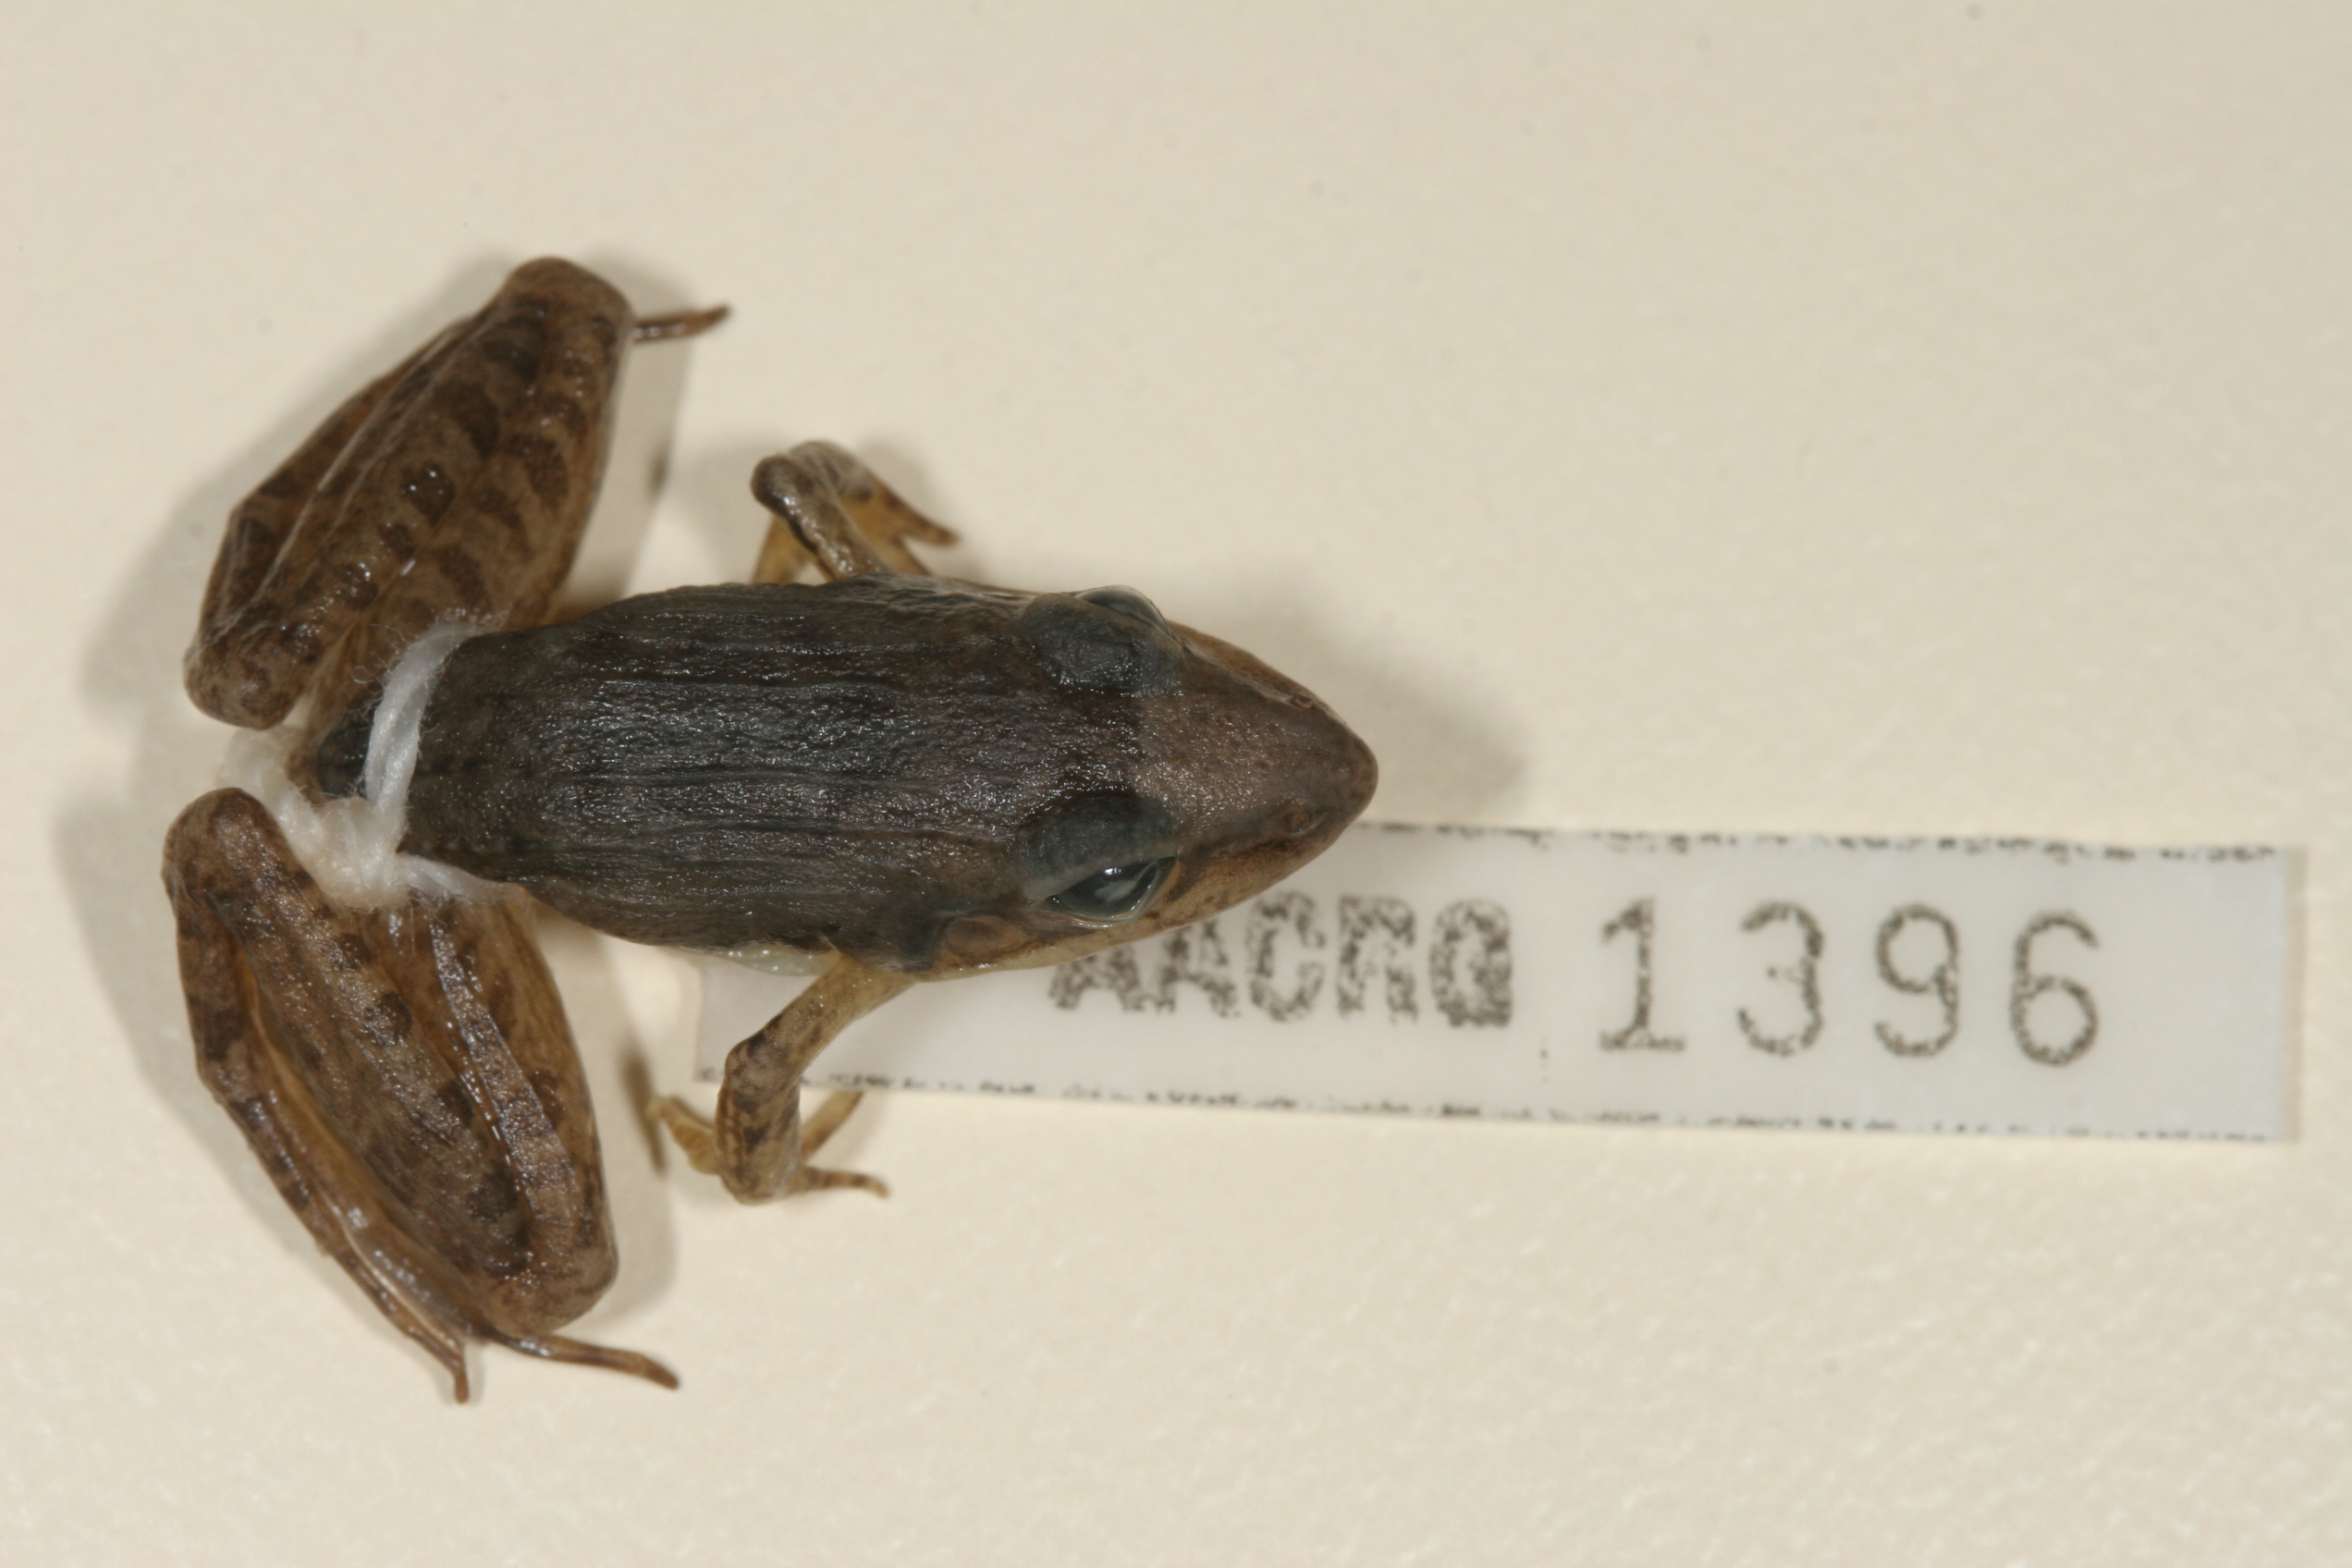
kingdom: Animalia
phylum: Chordata
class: Amphibia
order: Anura
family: Ptychadenidae
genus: Ptychadena
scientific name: Ptychadena anchietae
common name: Anchieta's ridged frog
